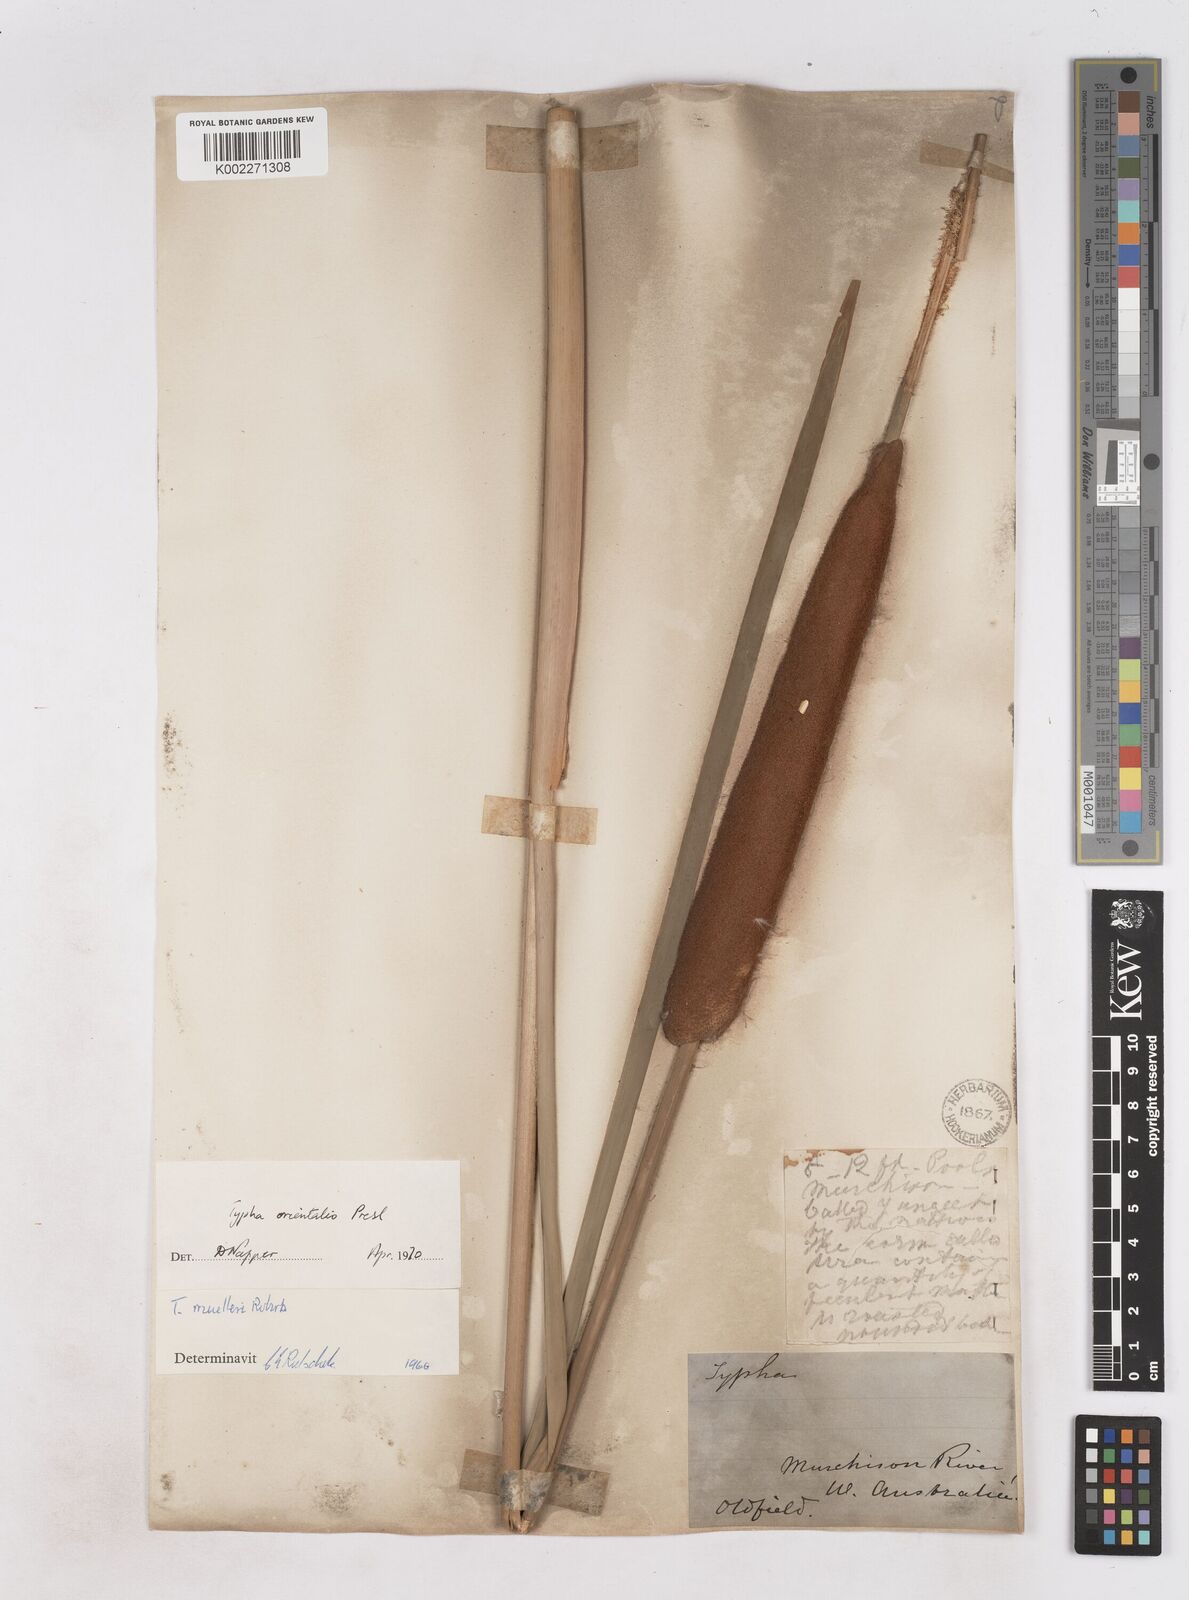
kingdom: Plantae
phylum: Tracheophyta
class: Liliopsida
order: Poales
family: Typhaceae
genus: Typha
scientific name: Typha orientalis
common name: Bullrush
